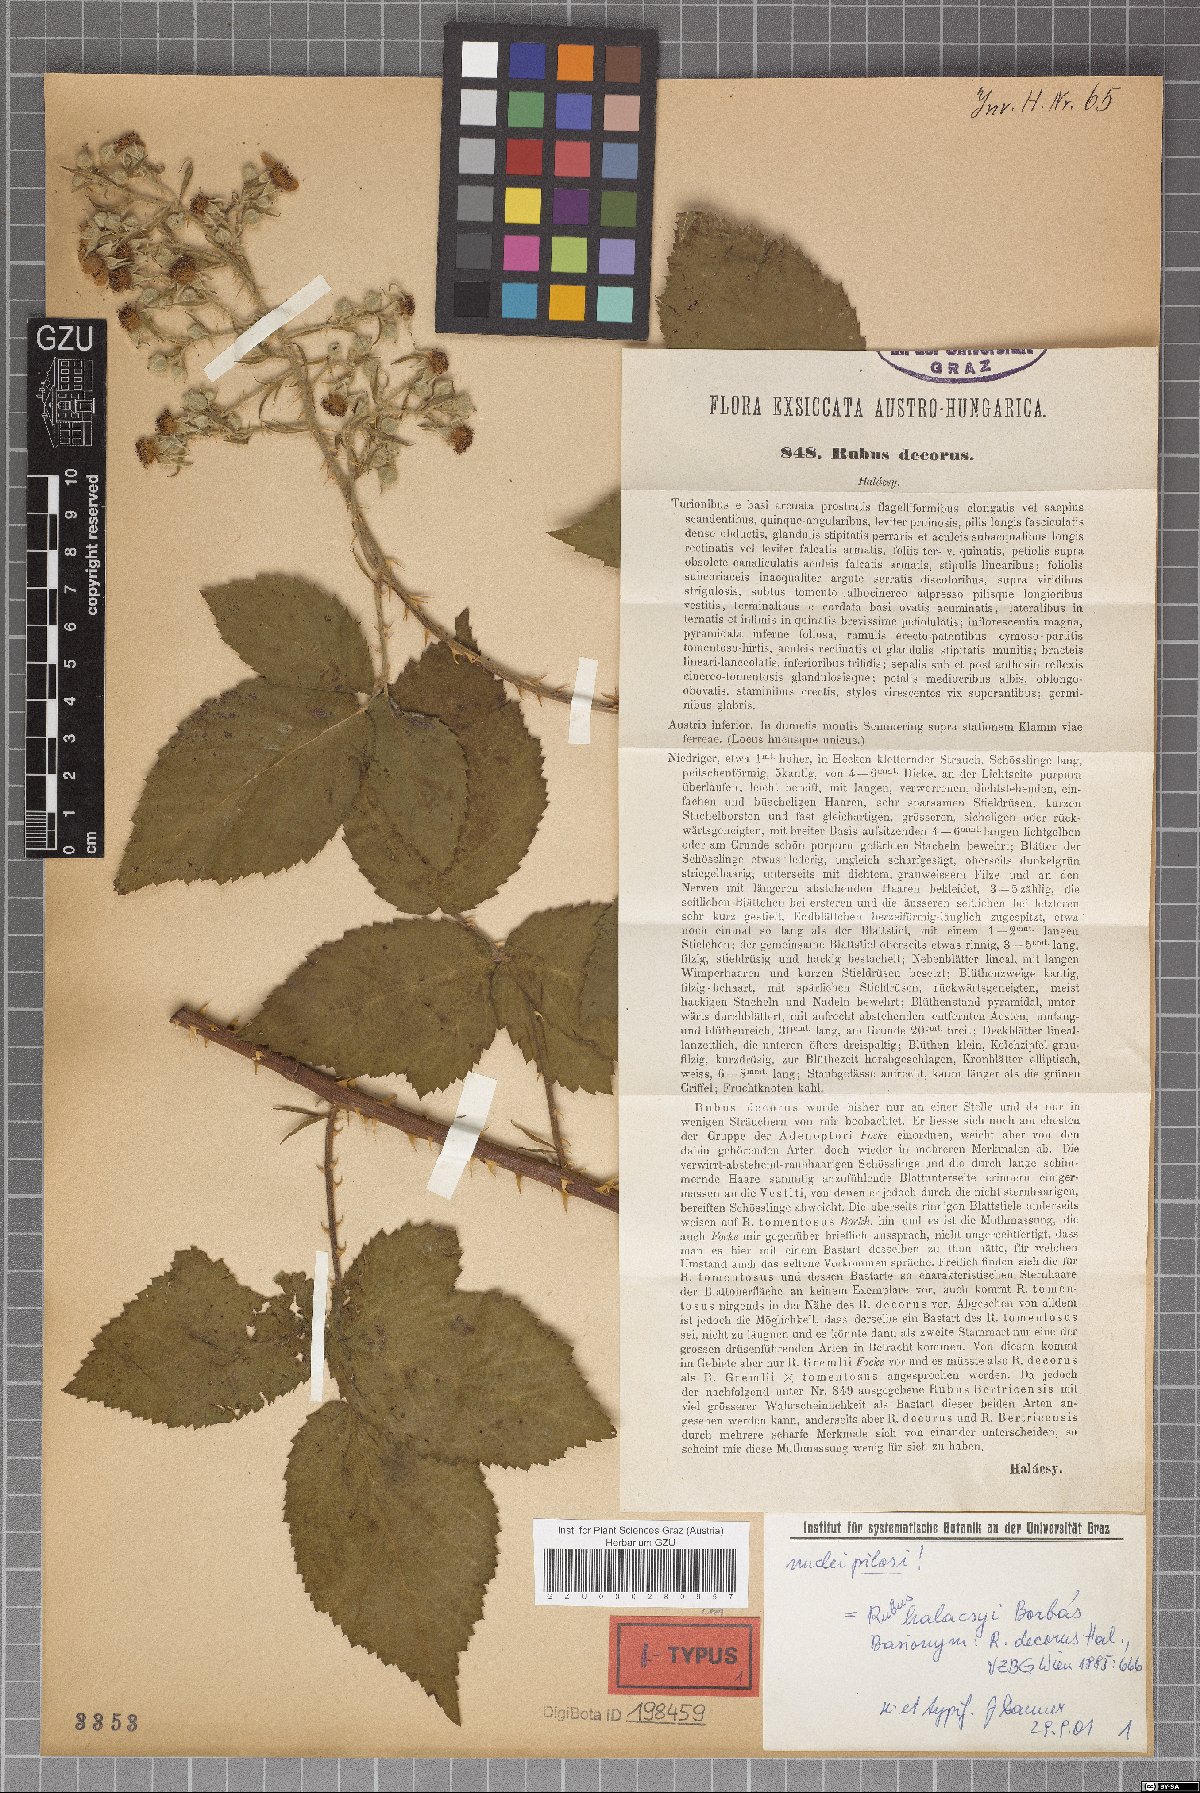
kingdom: Plantae
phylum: Tracheophyta
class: Magnoliopsida
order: Rosales
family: Rosaceae
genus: Rubus
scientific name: Rubus decorus
